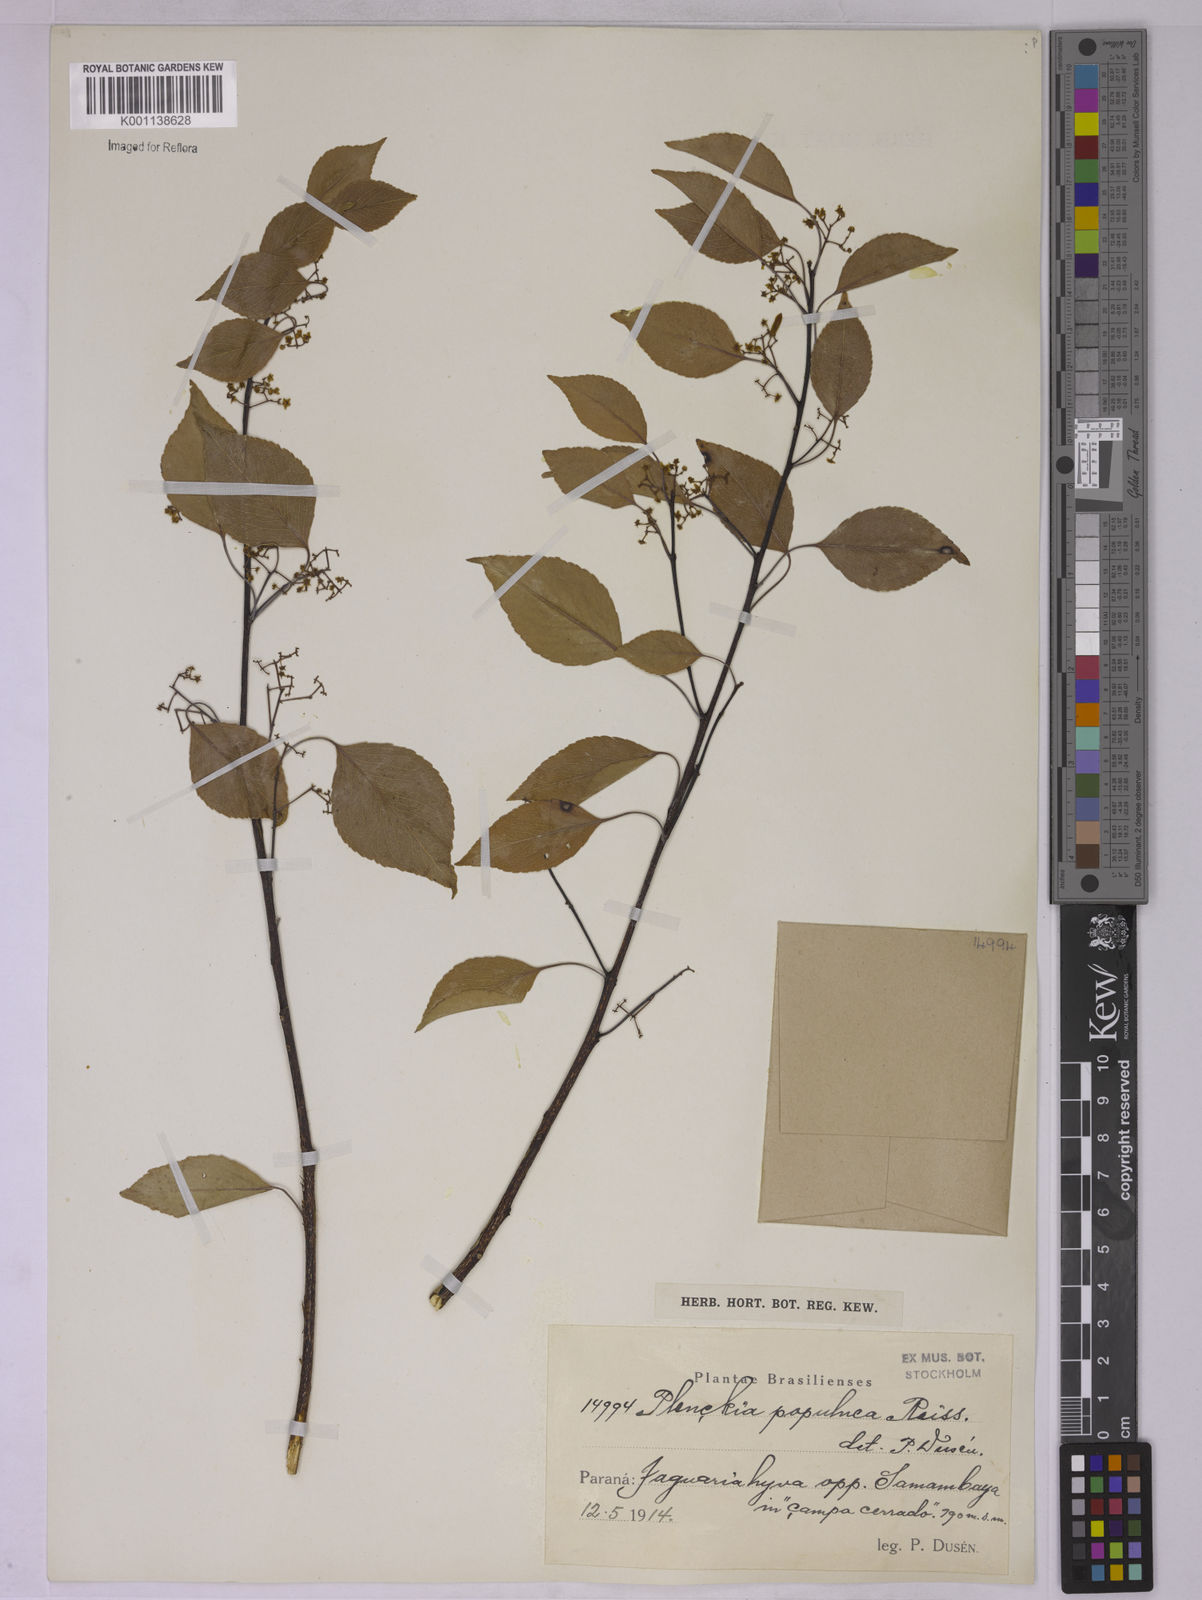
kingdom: Plantae
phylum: Tracheophyta
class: Magnoliopsida
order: Celastrales
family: Celastraceae
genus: Plenckia
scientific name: Plenckia populnea
